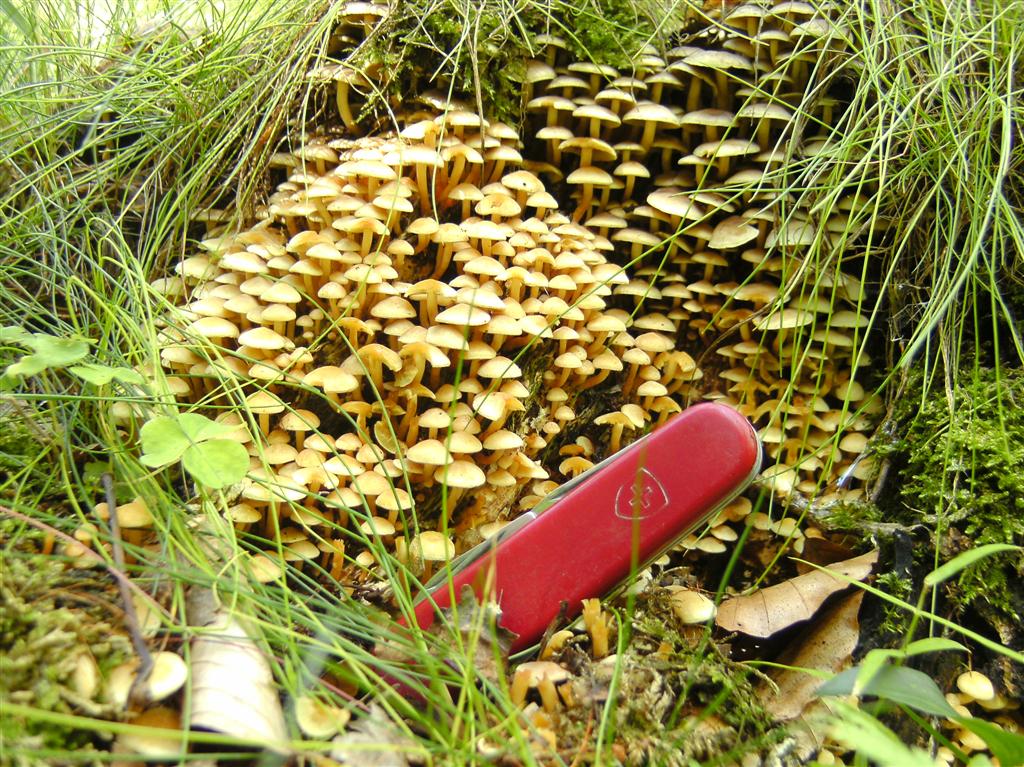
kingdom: Fungi
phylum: Basidiomycota
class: Agaricomycetes
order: Agaricales
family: Strophariaceae
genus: Hypholoma
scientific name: Hypholoma fasciculare
